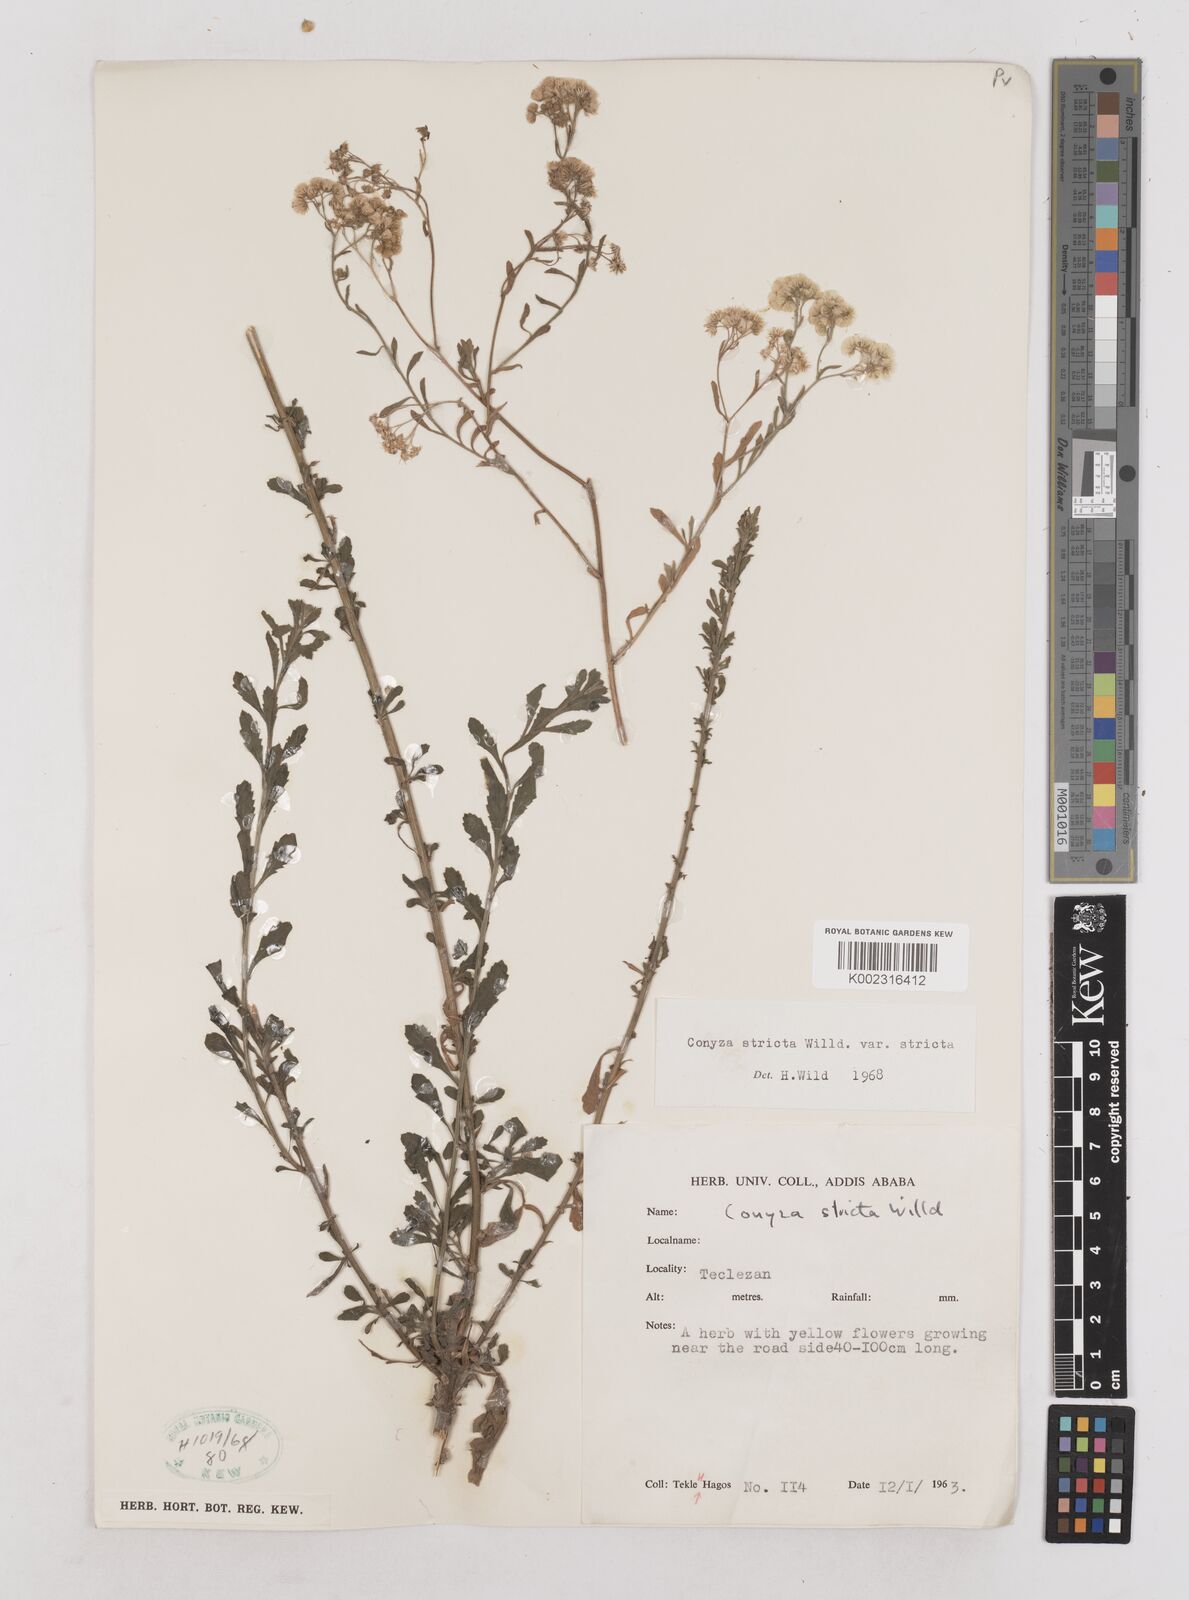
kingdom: Plantae
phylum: Tracheophyta
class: Magnoliopsida
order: Asterales
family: Asteraceae
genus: Nidorella
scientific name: Nidorella triloba
